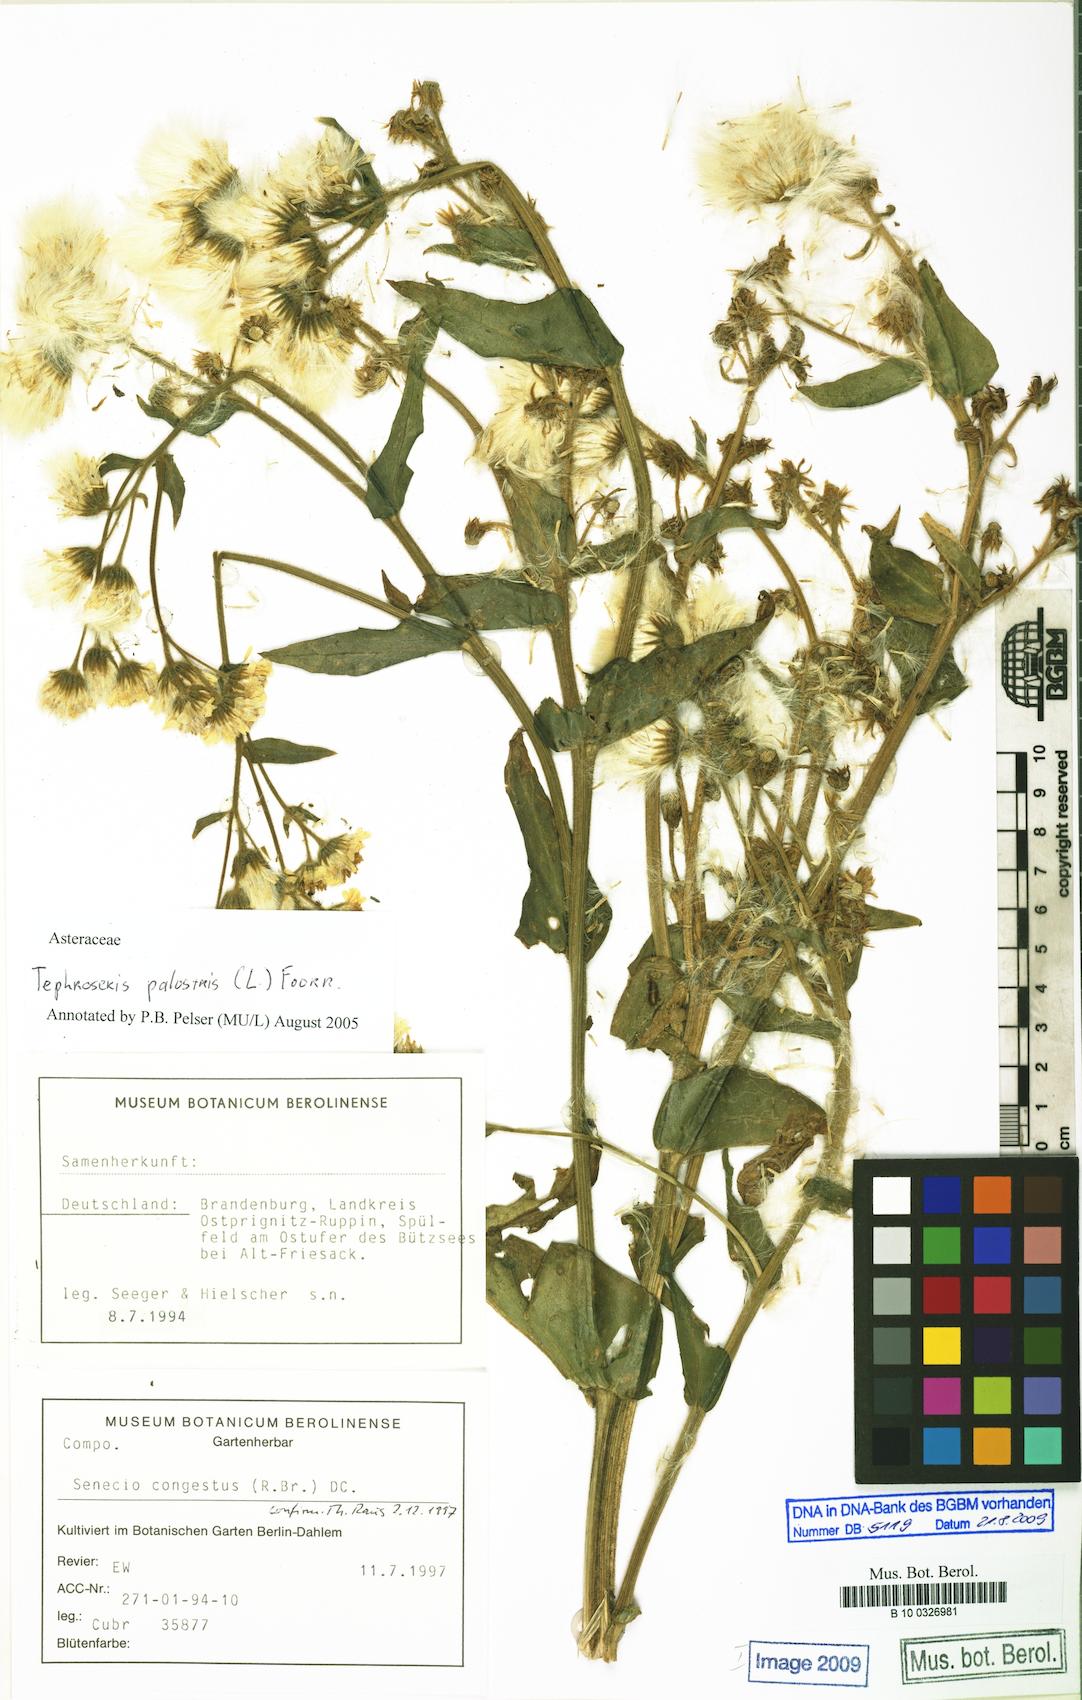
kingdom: Plantae
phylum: Tracheophyta
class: Magnoliopsida
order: Asterales
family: Asteraceae
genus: Tephroseris
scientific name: Tephroseris palustris
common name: Marsh fleawort
